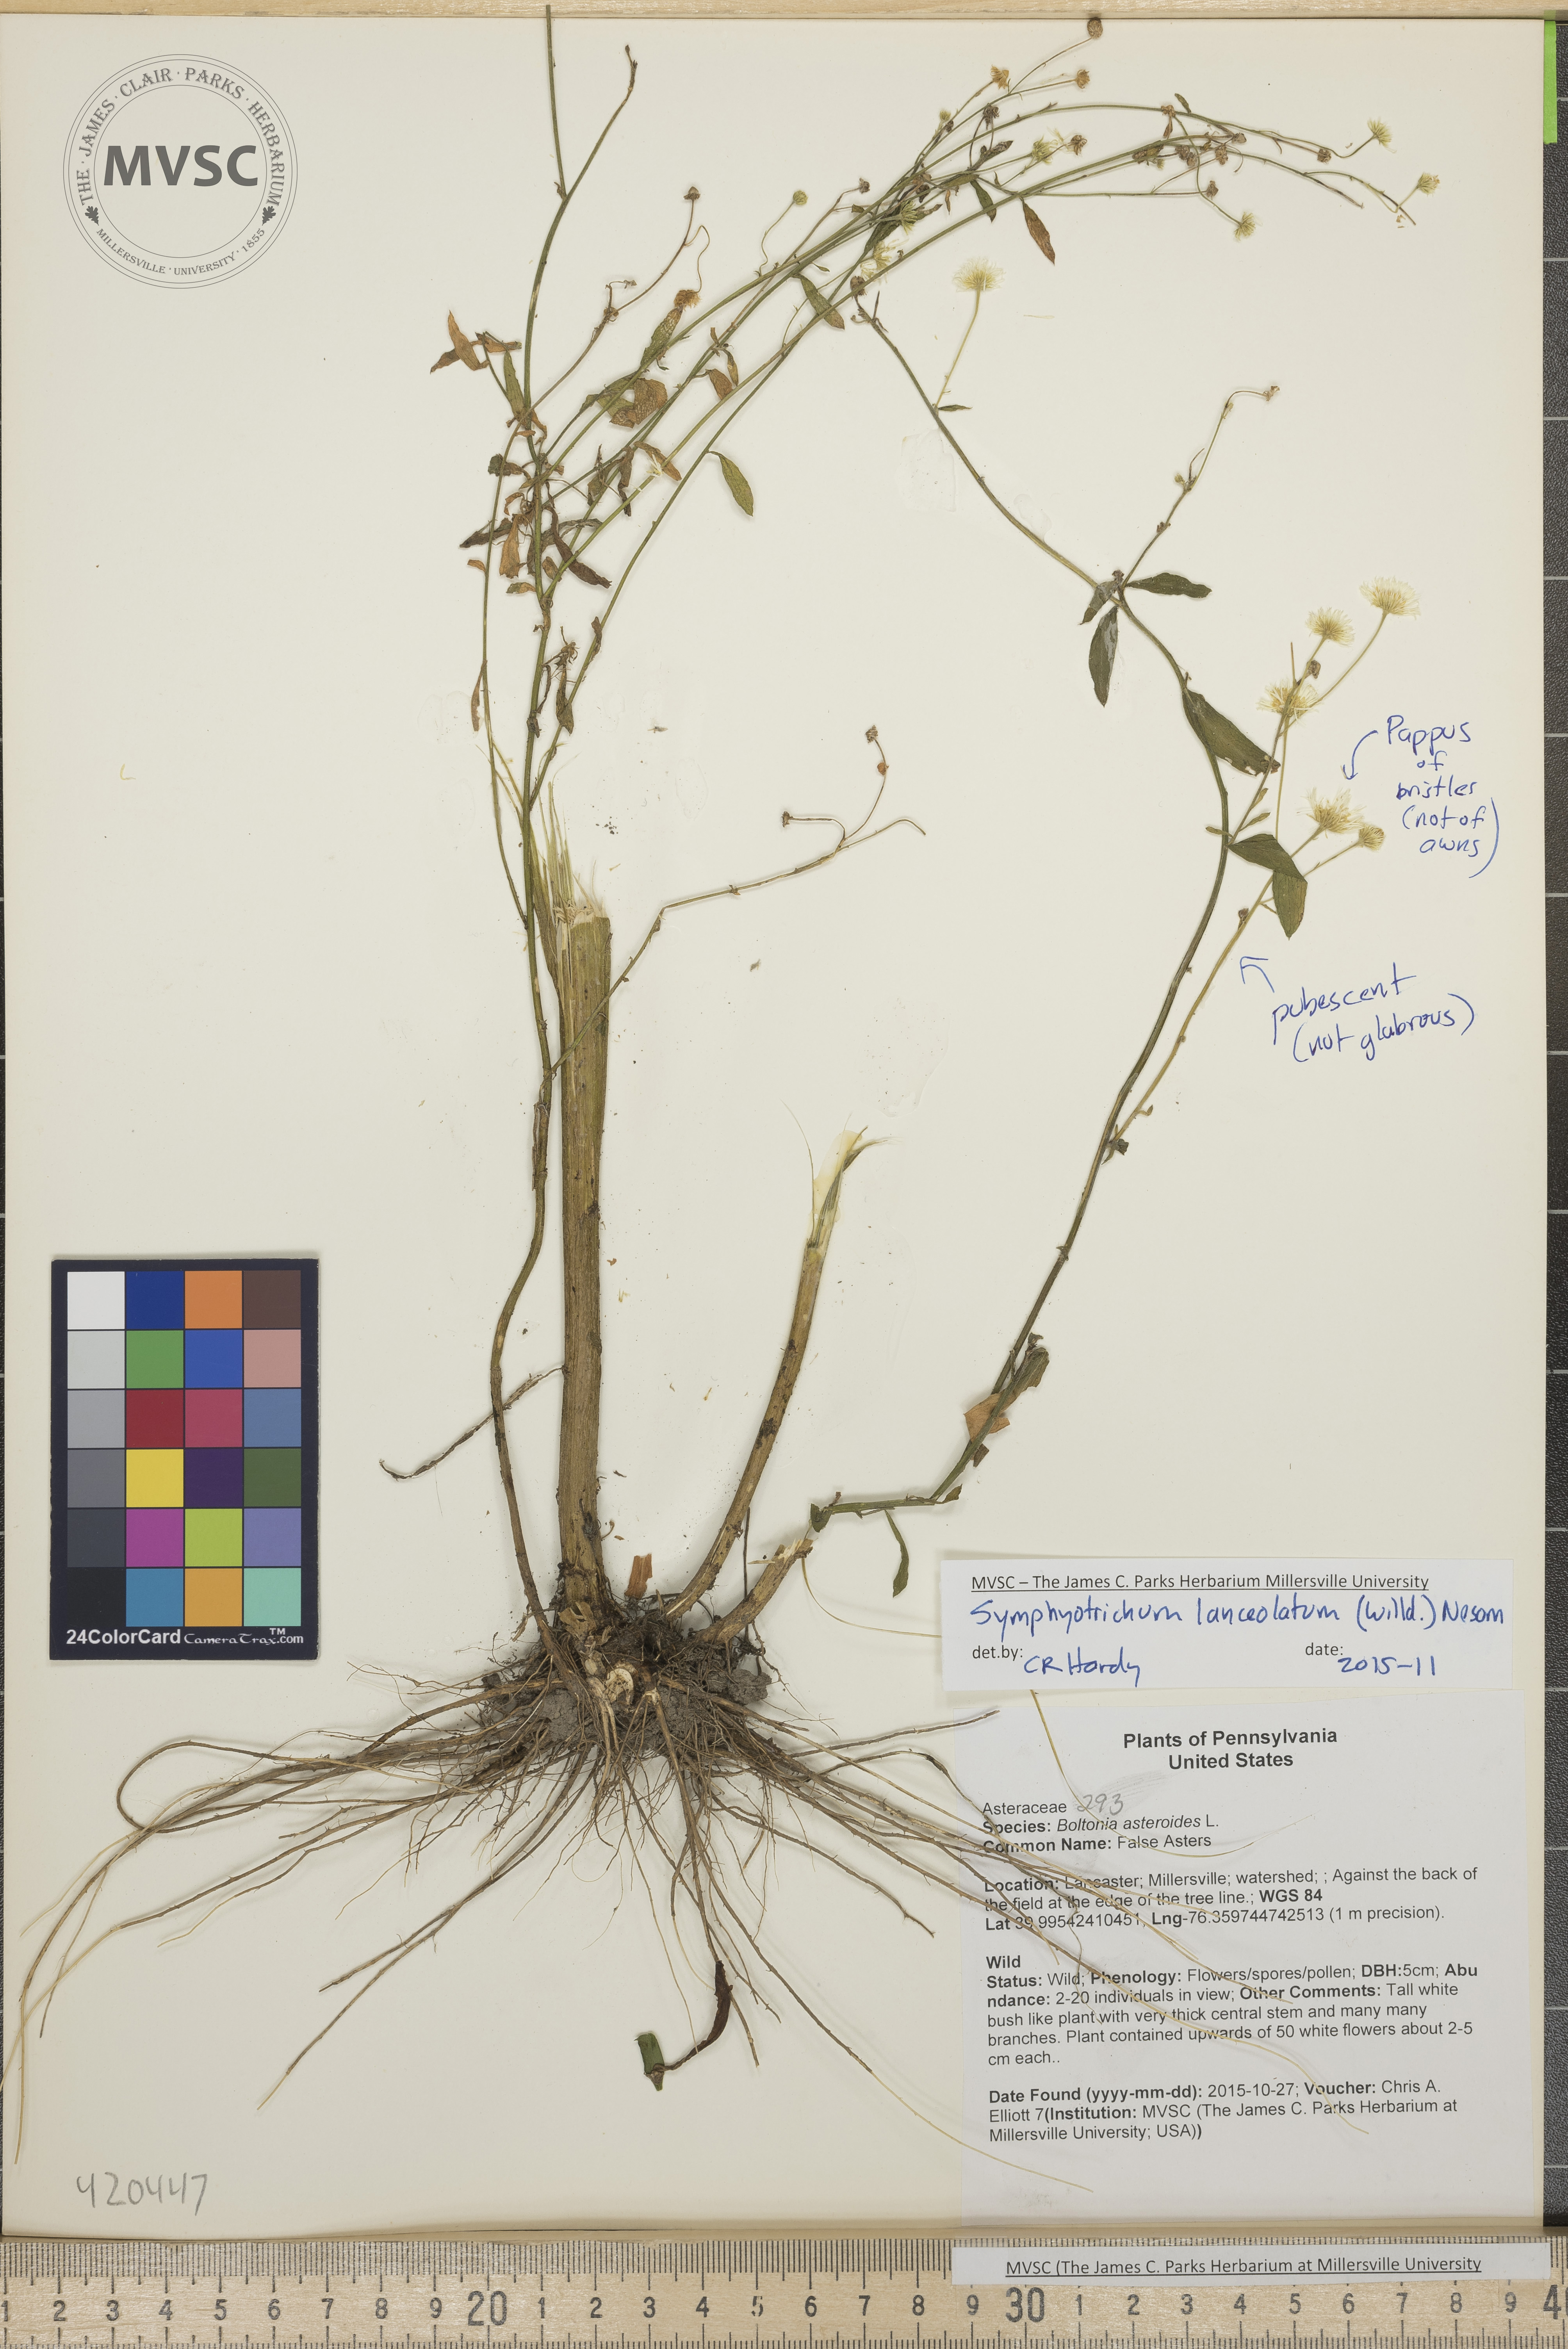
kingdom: Plantae
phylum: Tracheophyta
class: Magnoliopsida
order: Asterales
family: Asteraceae
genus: Symphyotrichum
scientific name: Symphyotrichum lanceolatum
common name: Aster
